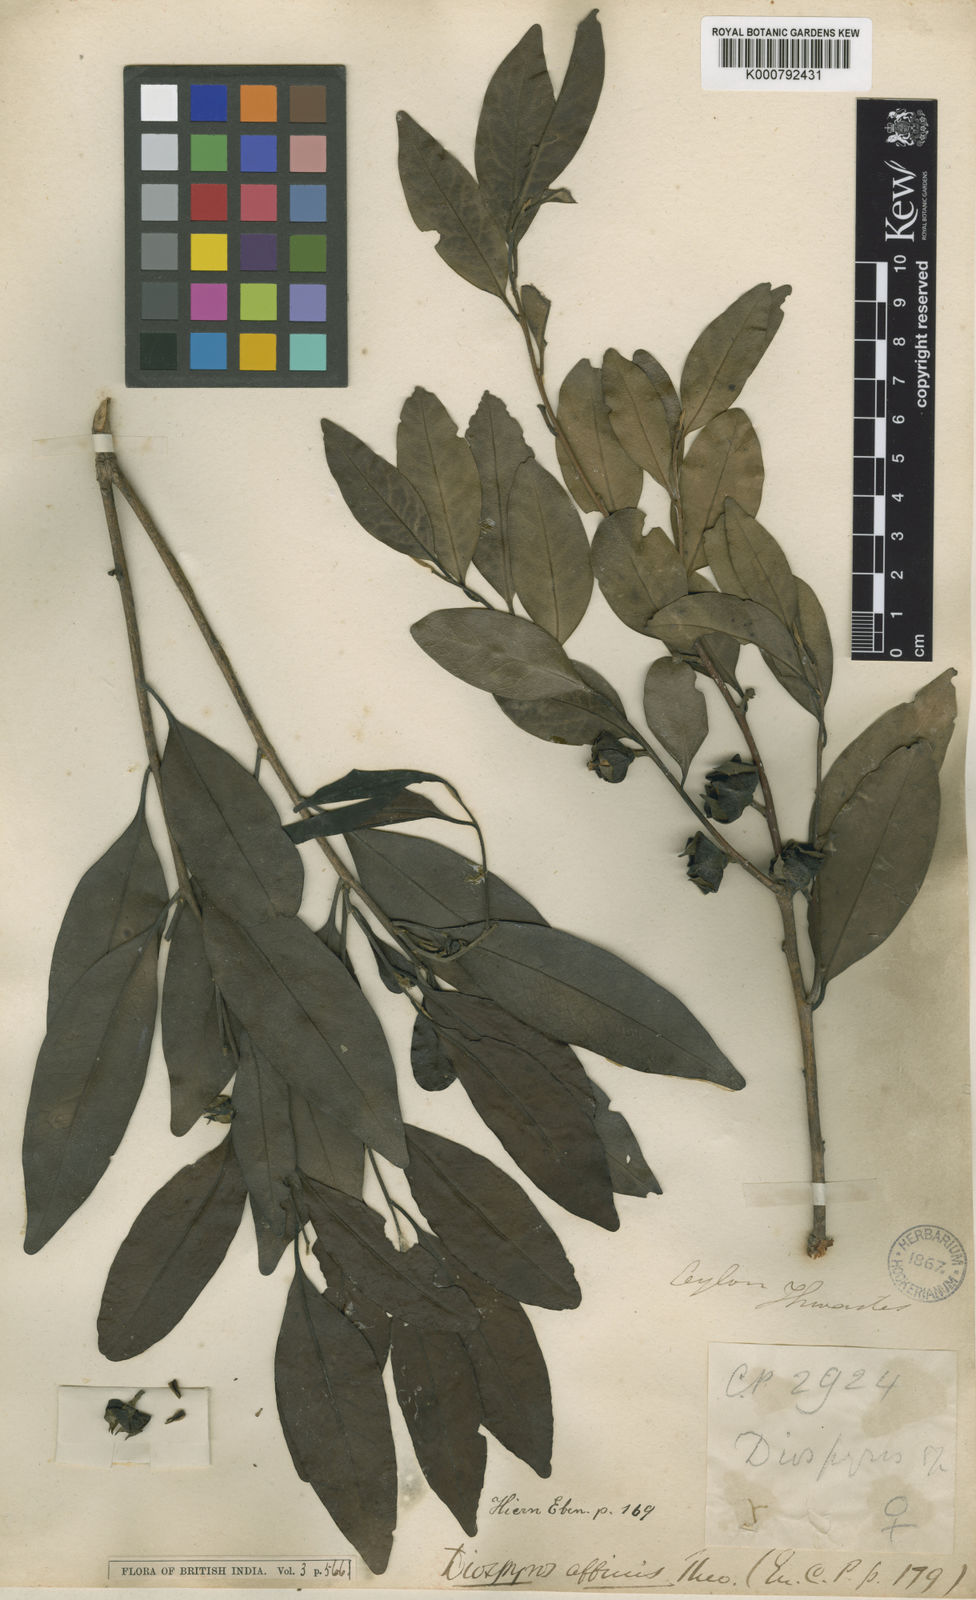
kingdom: Plantae
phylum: Tracheophyta
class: Magnoliopsida
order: Ericales
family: Ebenaceae
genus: Diospyros
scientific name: Diospyros affinis
